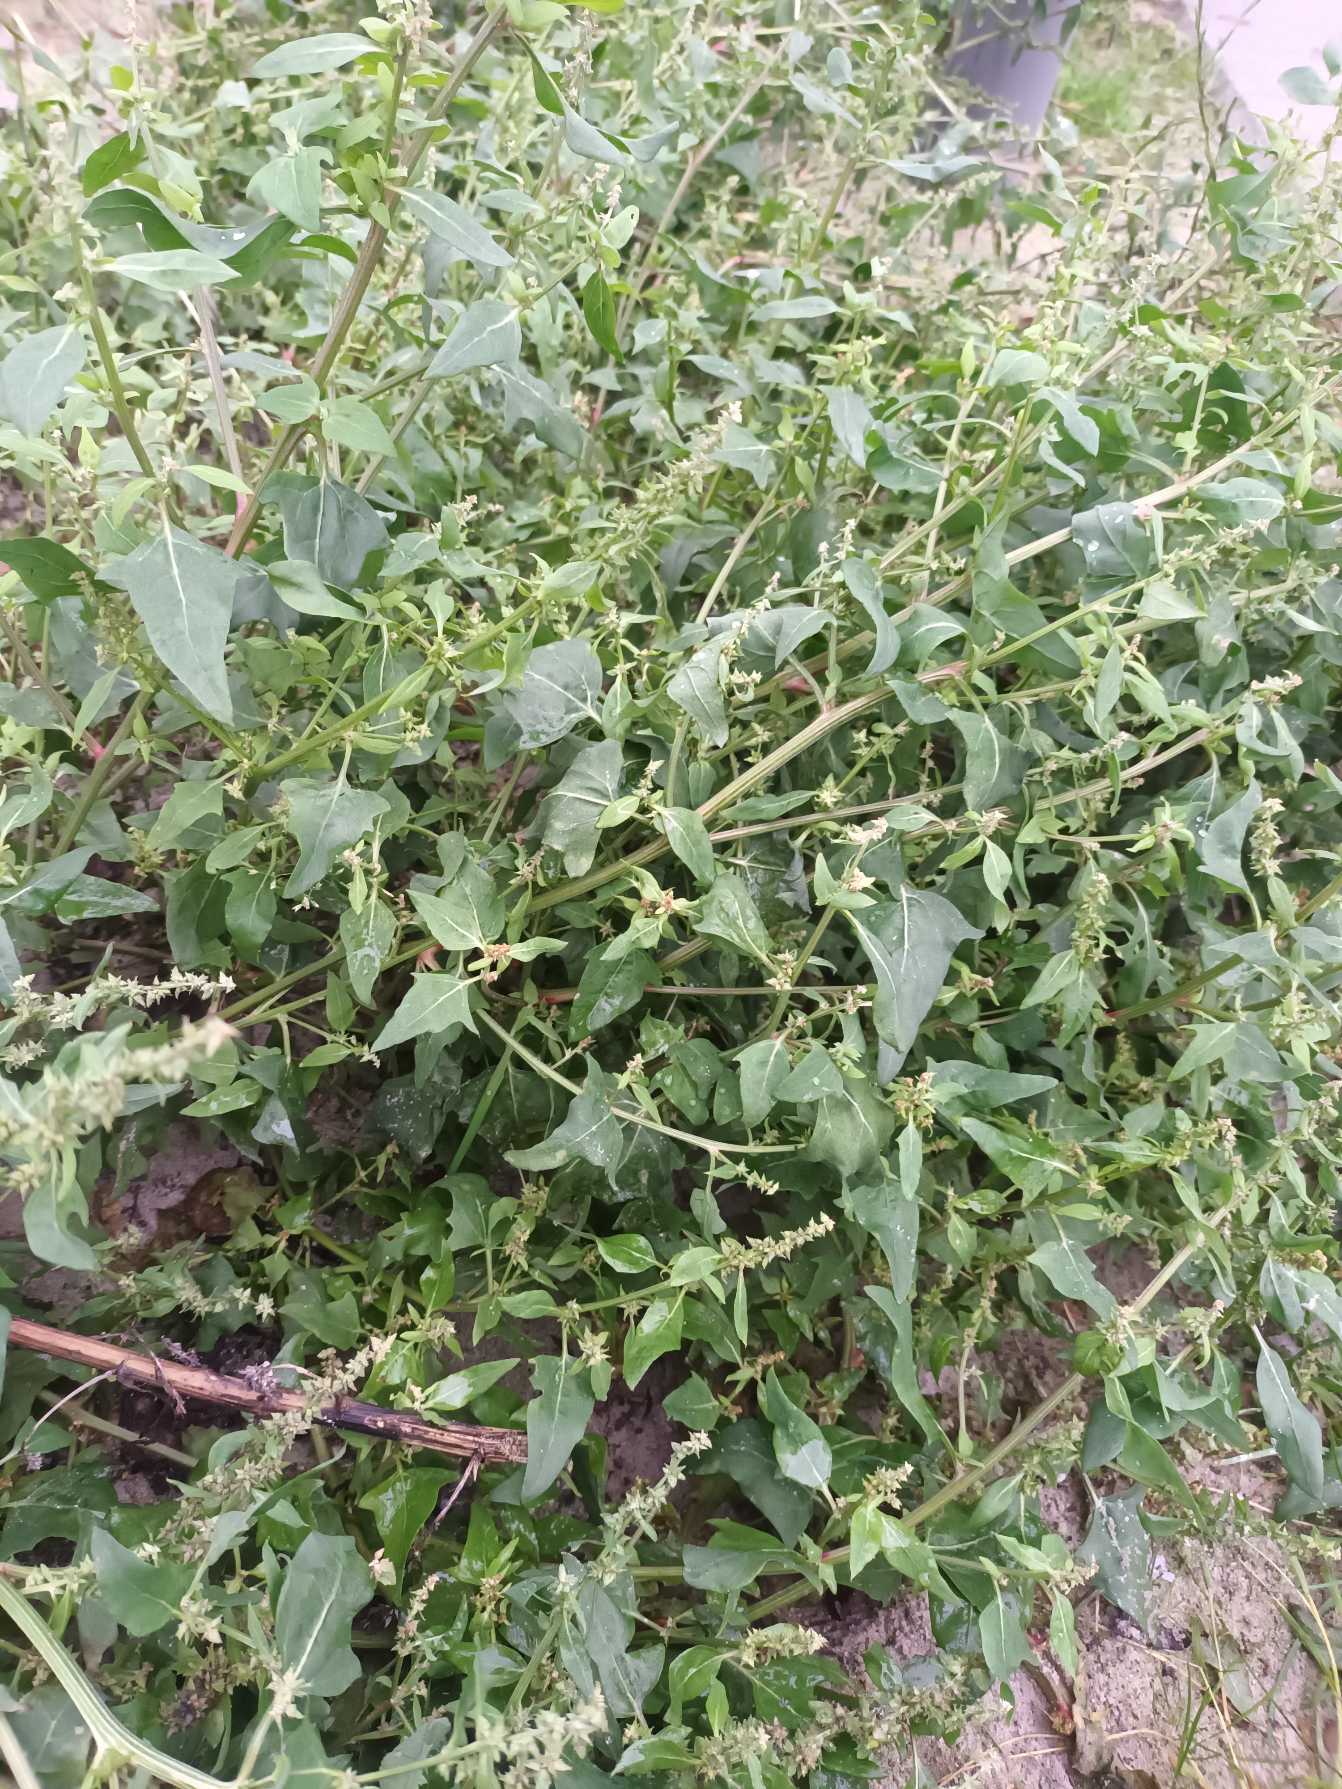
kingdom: Plantae
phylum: Tracheophyta
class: Magnoliopsida
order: Caryophyllales
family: Amaranthaceae
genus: Atriplex
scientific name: Atriplex prostrata
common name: Spyd-mælde
